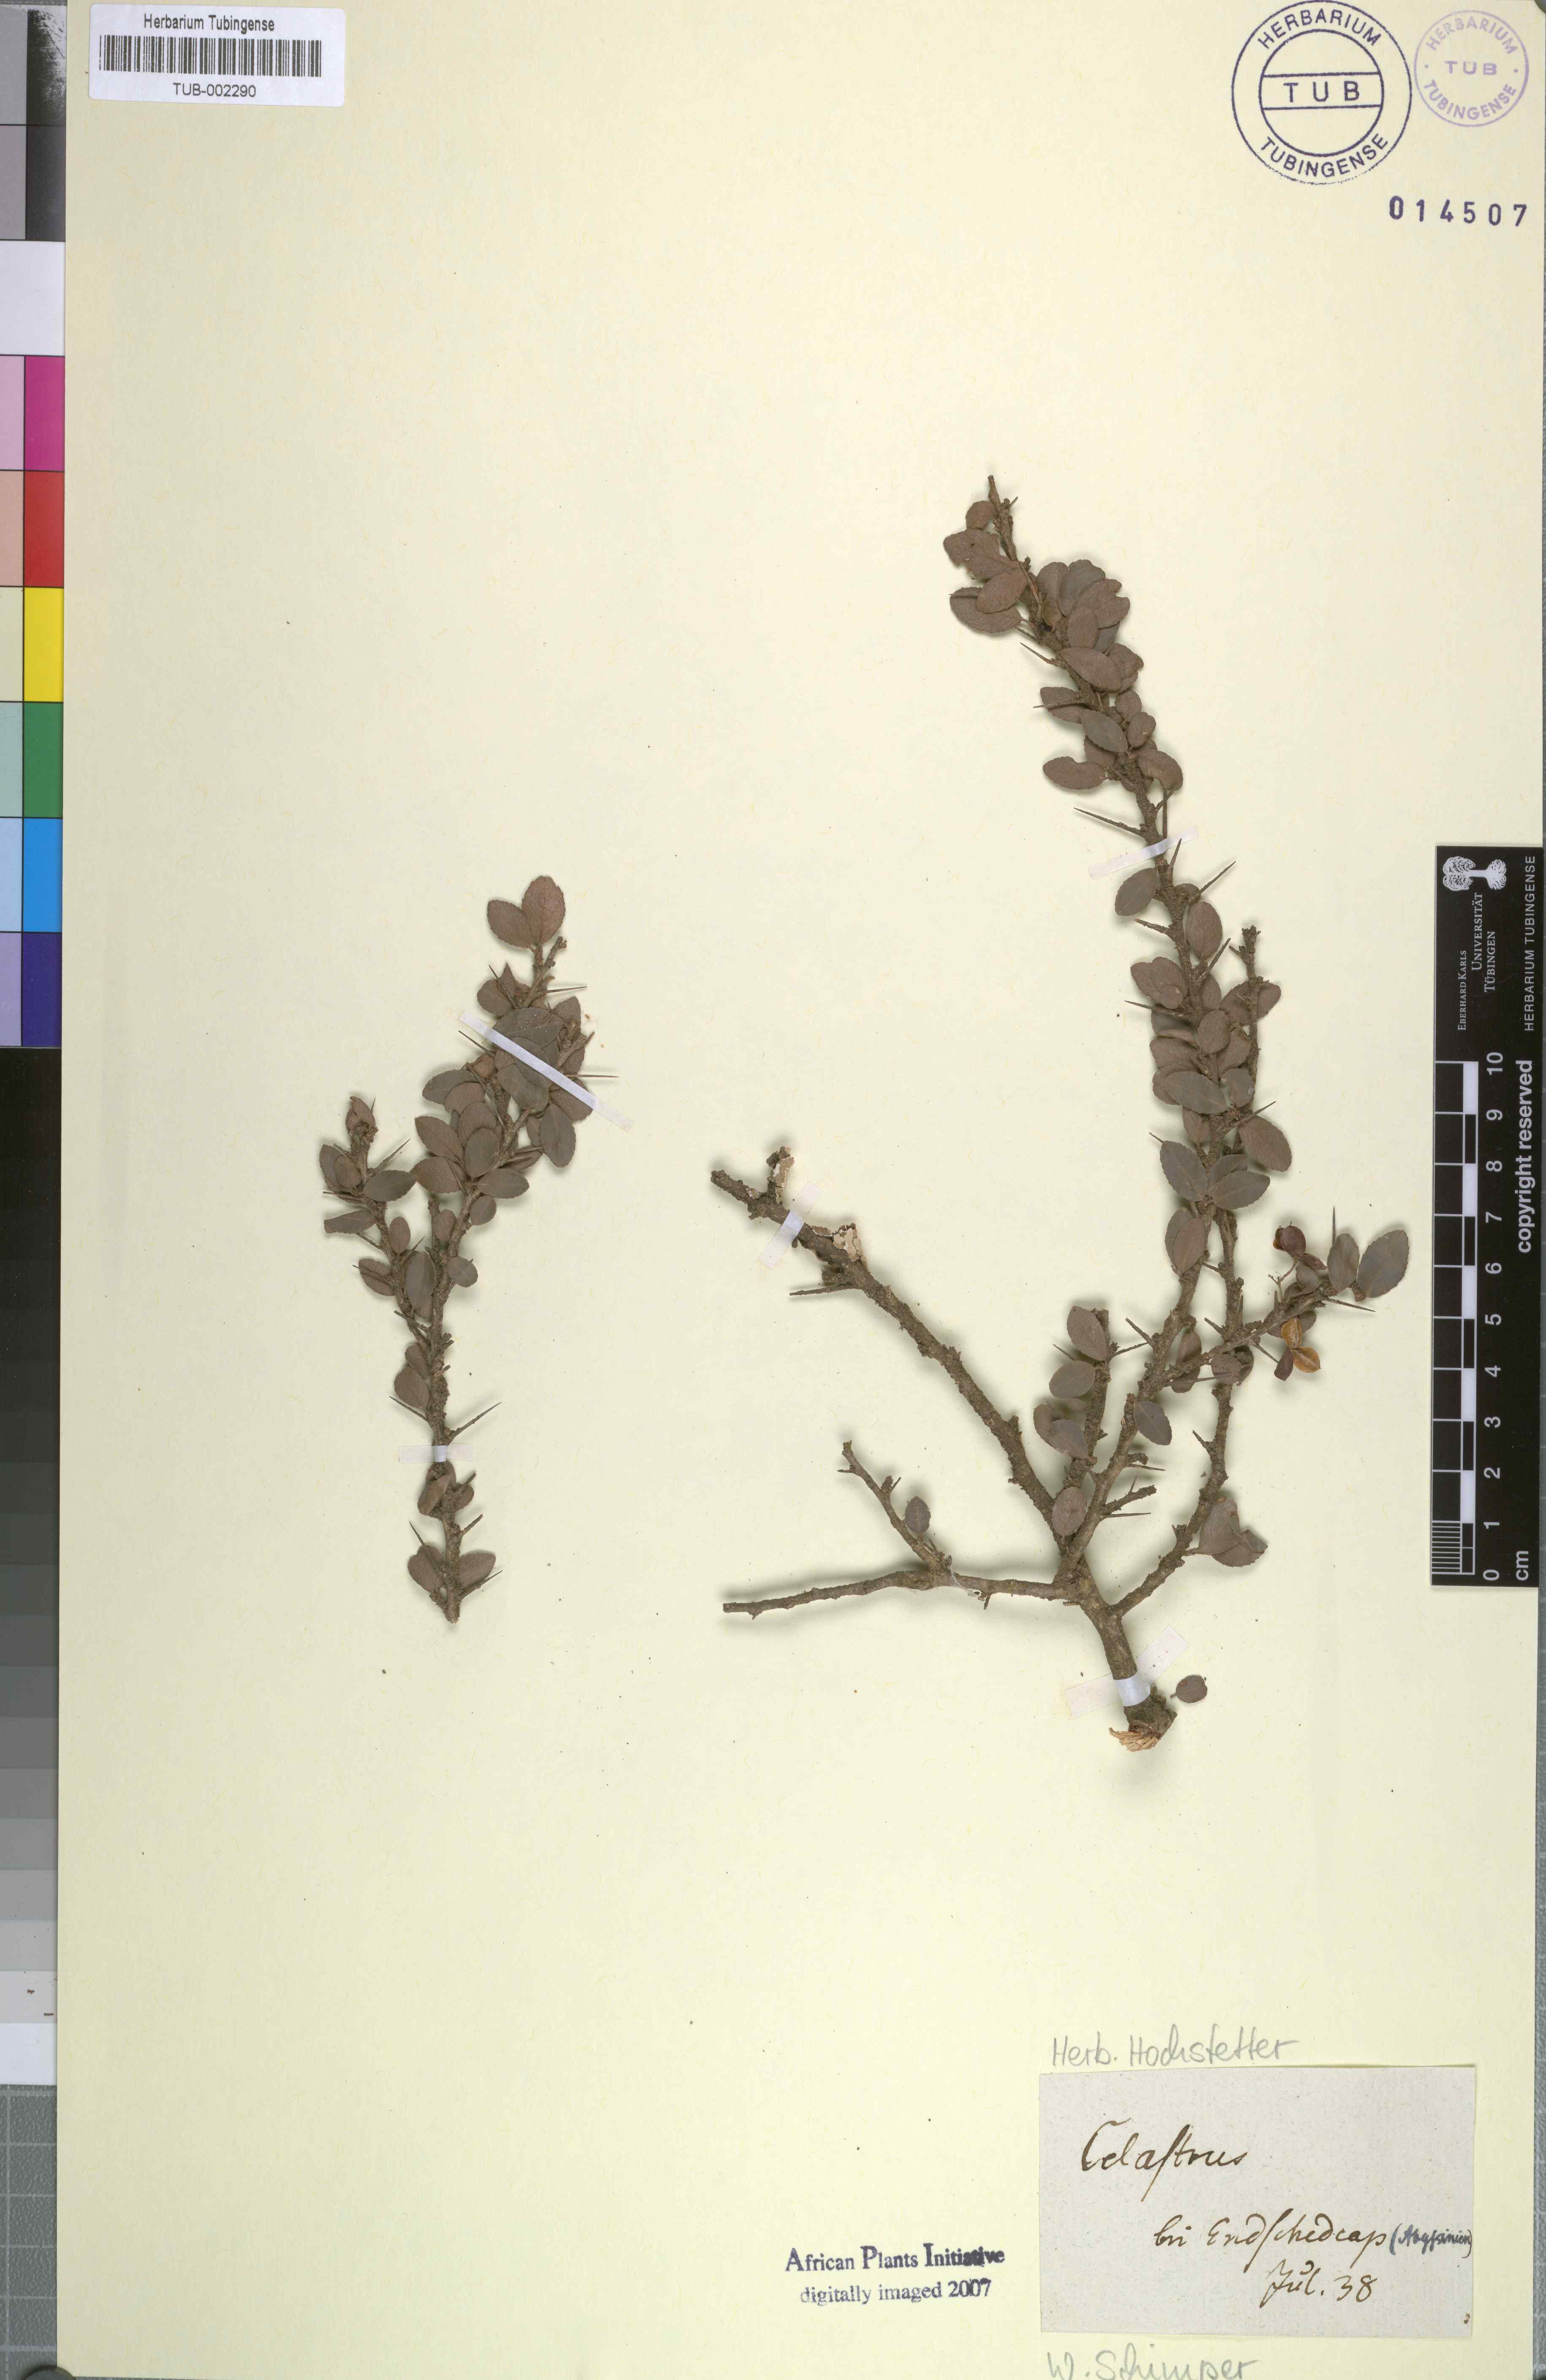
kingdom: Plantae
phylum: Tracheophyta
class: Magnoliopsida
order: Celastrales
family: Celastraceae
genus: Celastrus
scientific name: Celastrus
